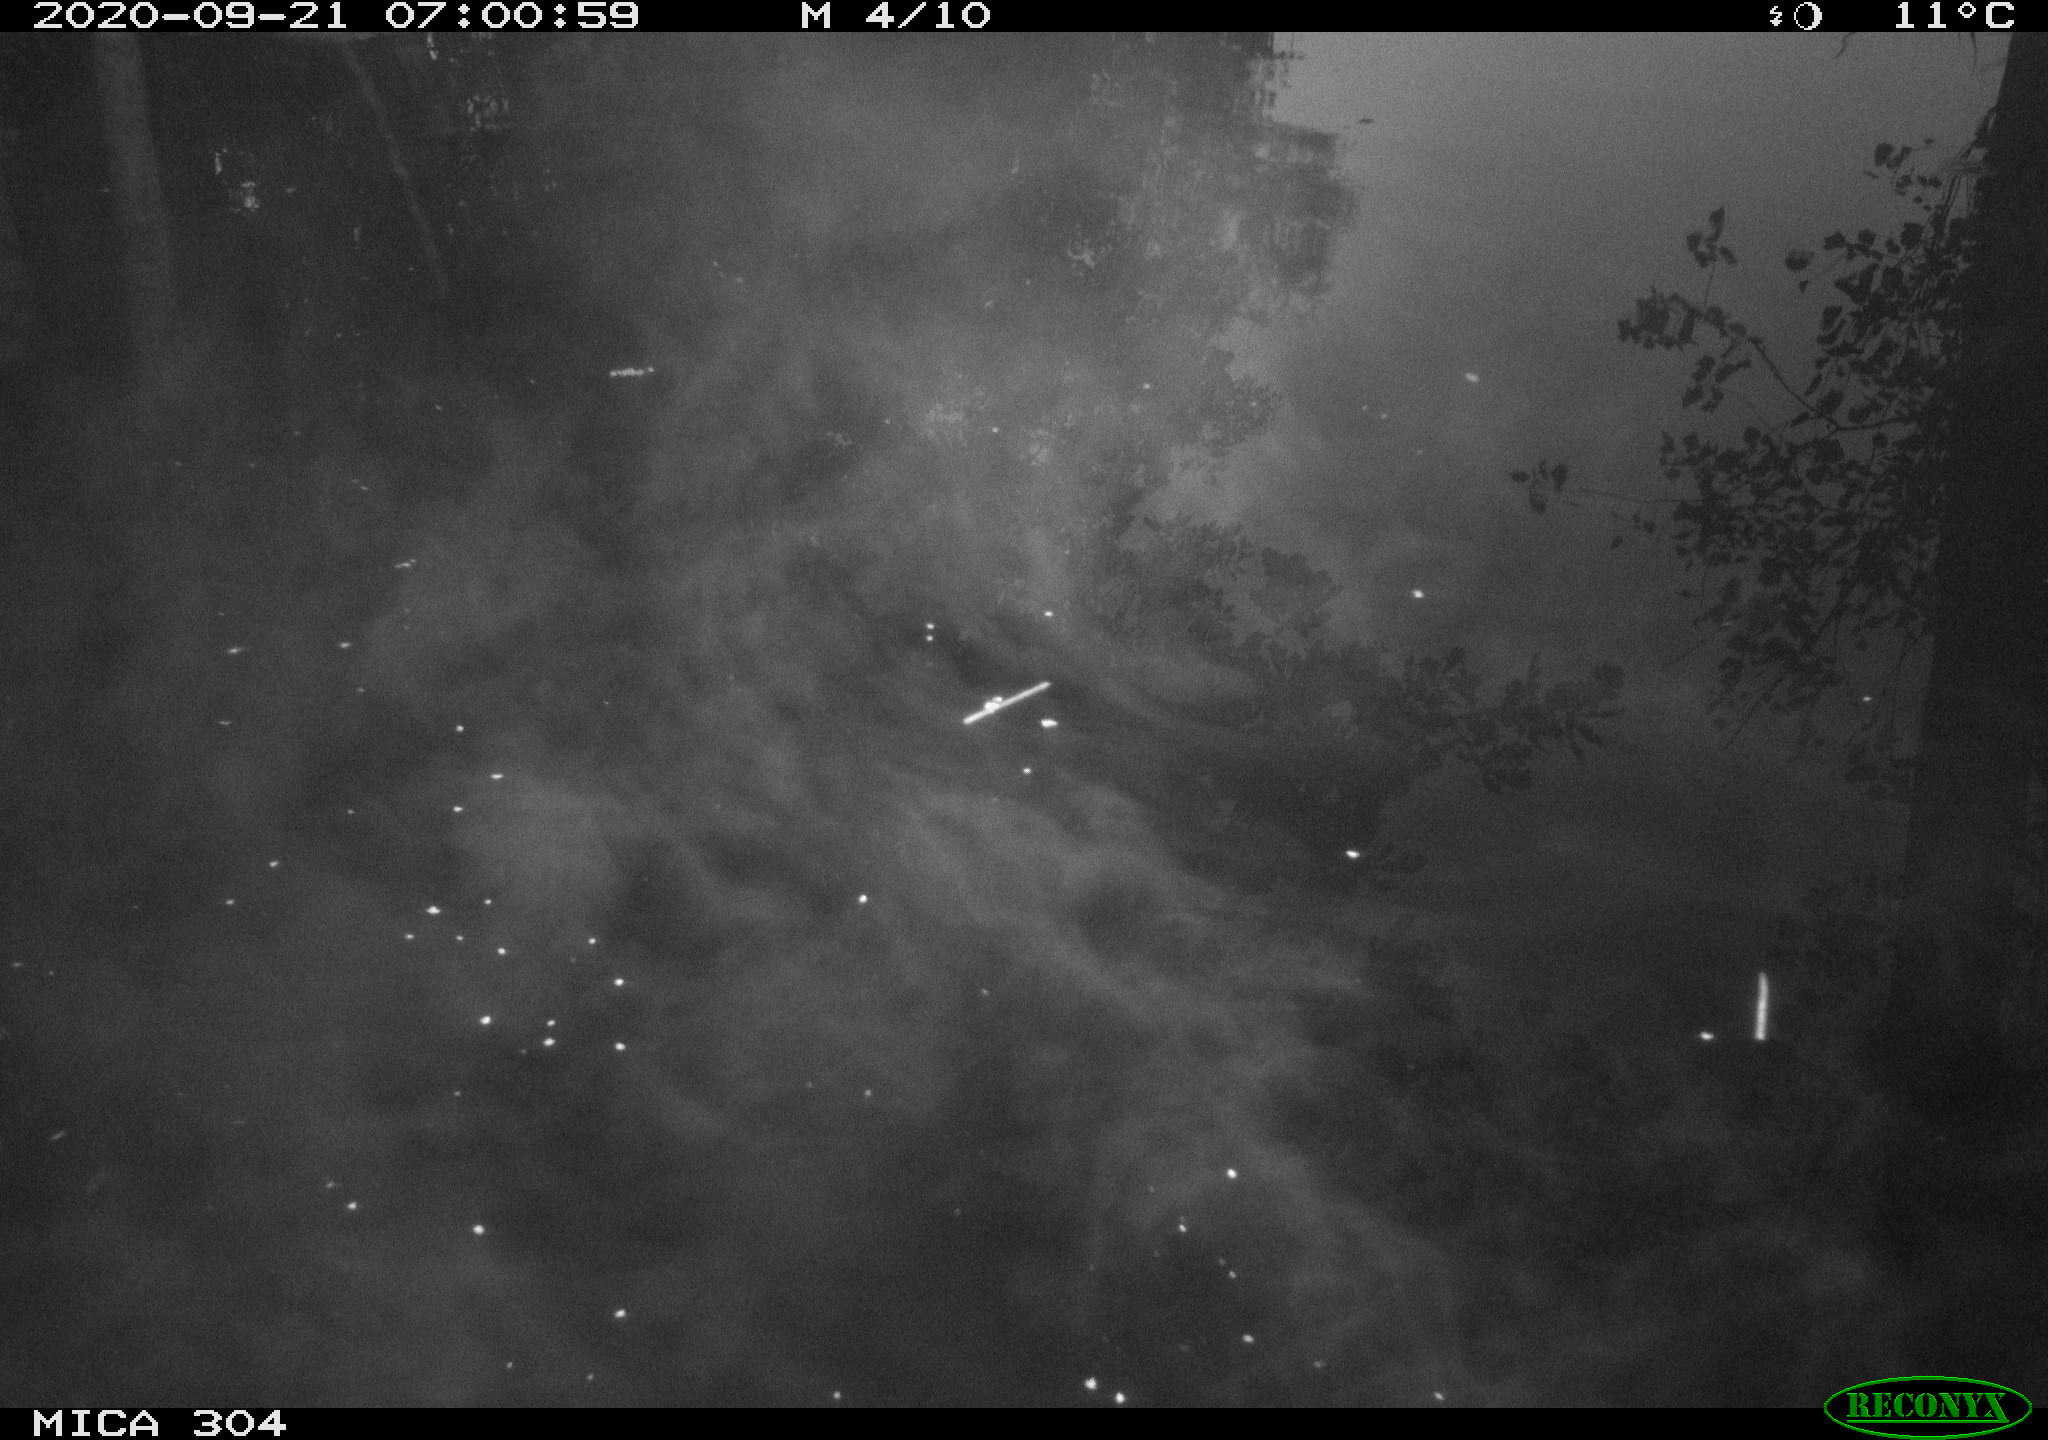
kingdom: Animalia
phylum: Chordata
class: Aves
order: Gruiformes
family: Rallidae
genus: Fulica
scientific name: Fulica atra
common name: Eurasian coot
